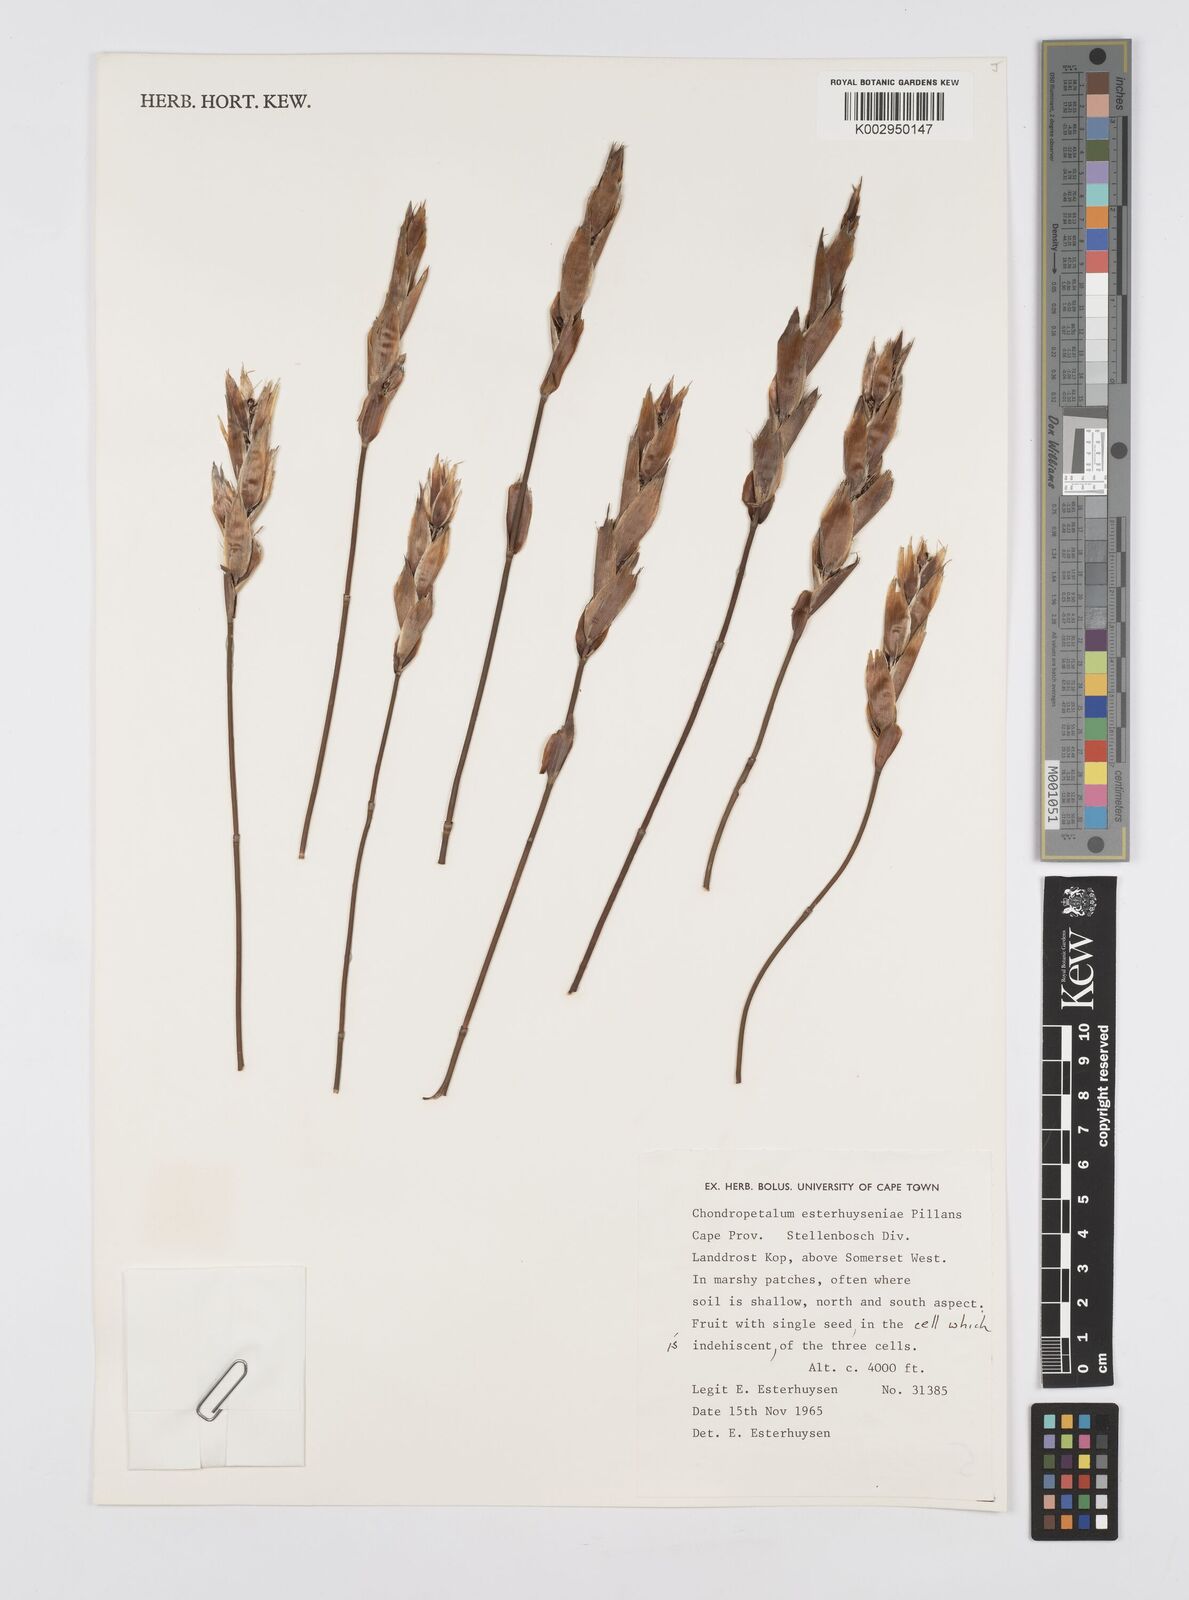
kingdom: Plantae
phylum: Tracheophyta
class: Liliopsida
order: Poales
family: Restionaceae
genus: Askidiosperma
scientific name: Askidiosperma esterhuyseniae
